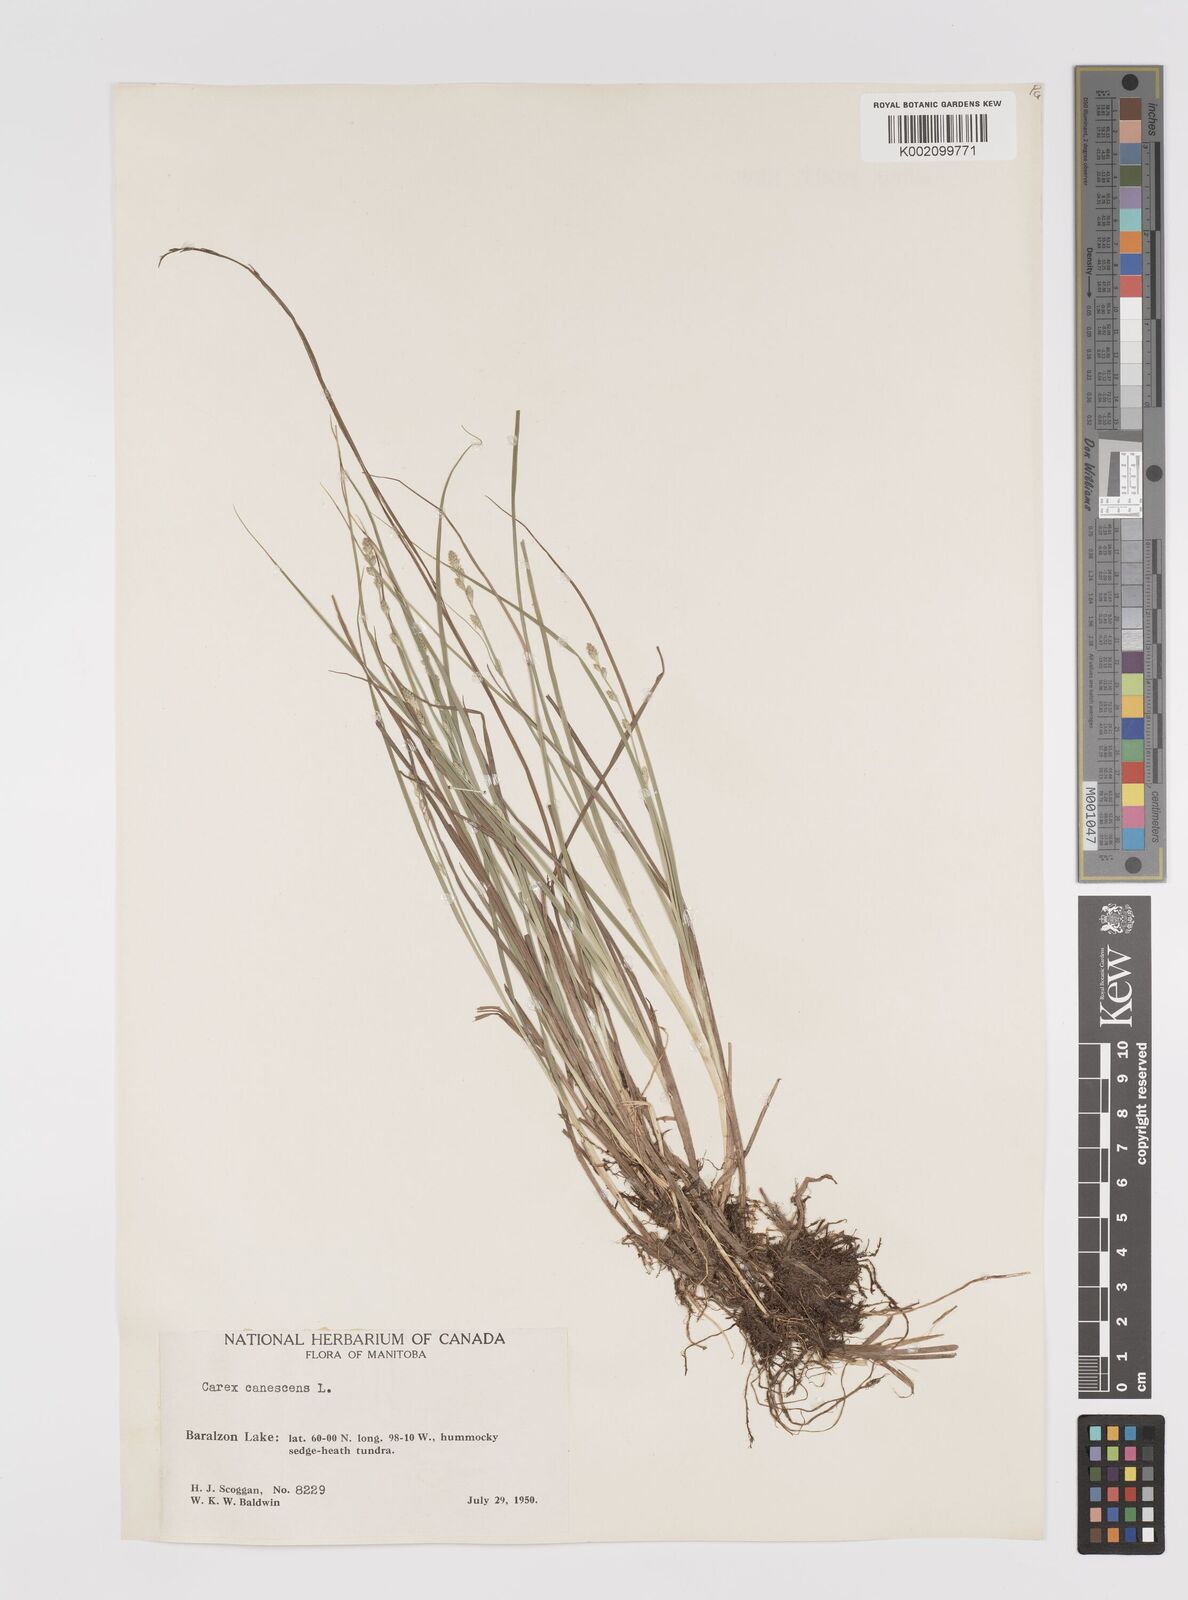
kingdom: Plantae
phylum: Tracheophyta
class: Liliopsida
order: Poales
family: Cyperaceae
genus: Carex
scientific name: Carex curta
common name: White sedge
